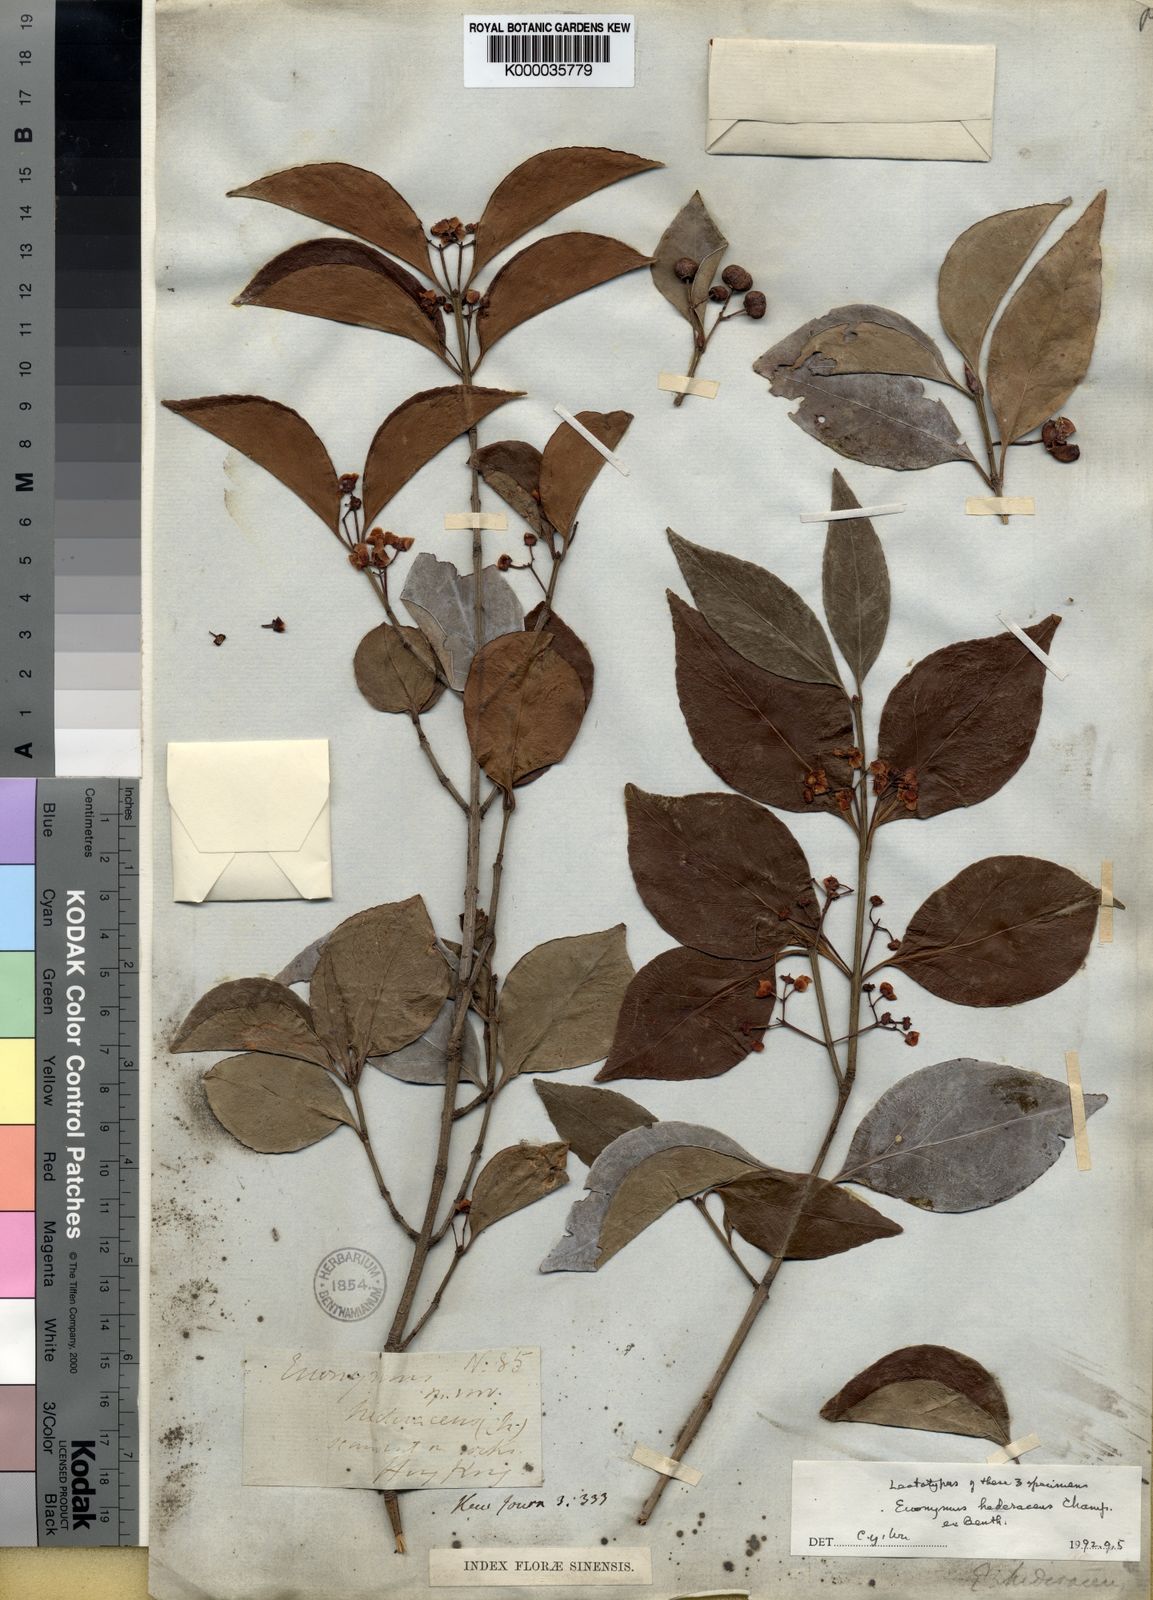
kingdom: Plantae
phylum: Tracheophyta
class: Magnoliopsida
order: Celastrales
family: Celastraceae
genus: Euonymus
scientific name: Euonymus fortunei
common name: Climbing euonymus
